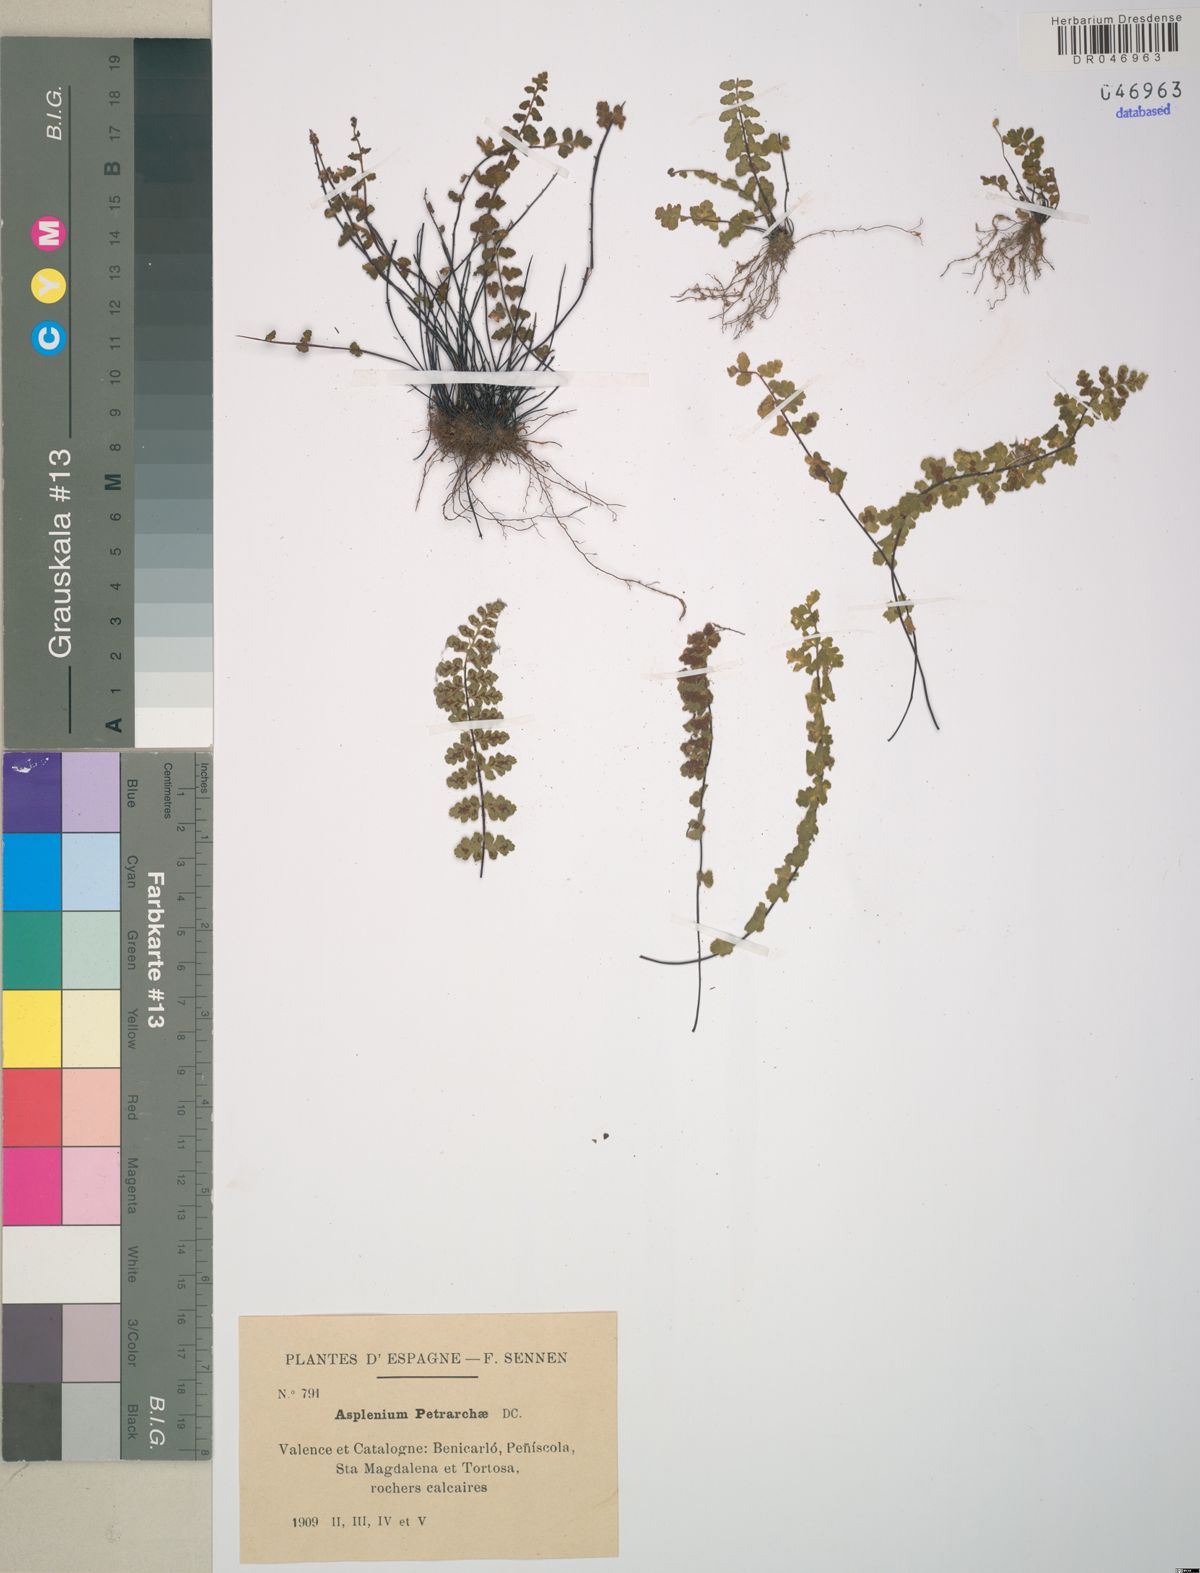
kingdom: Plantae
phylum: Tracheophyta
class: Polypodiopsida
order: Polypodiales
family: Aspleniaceae
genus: Asplenium
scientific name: Asplenium petrarchae
